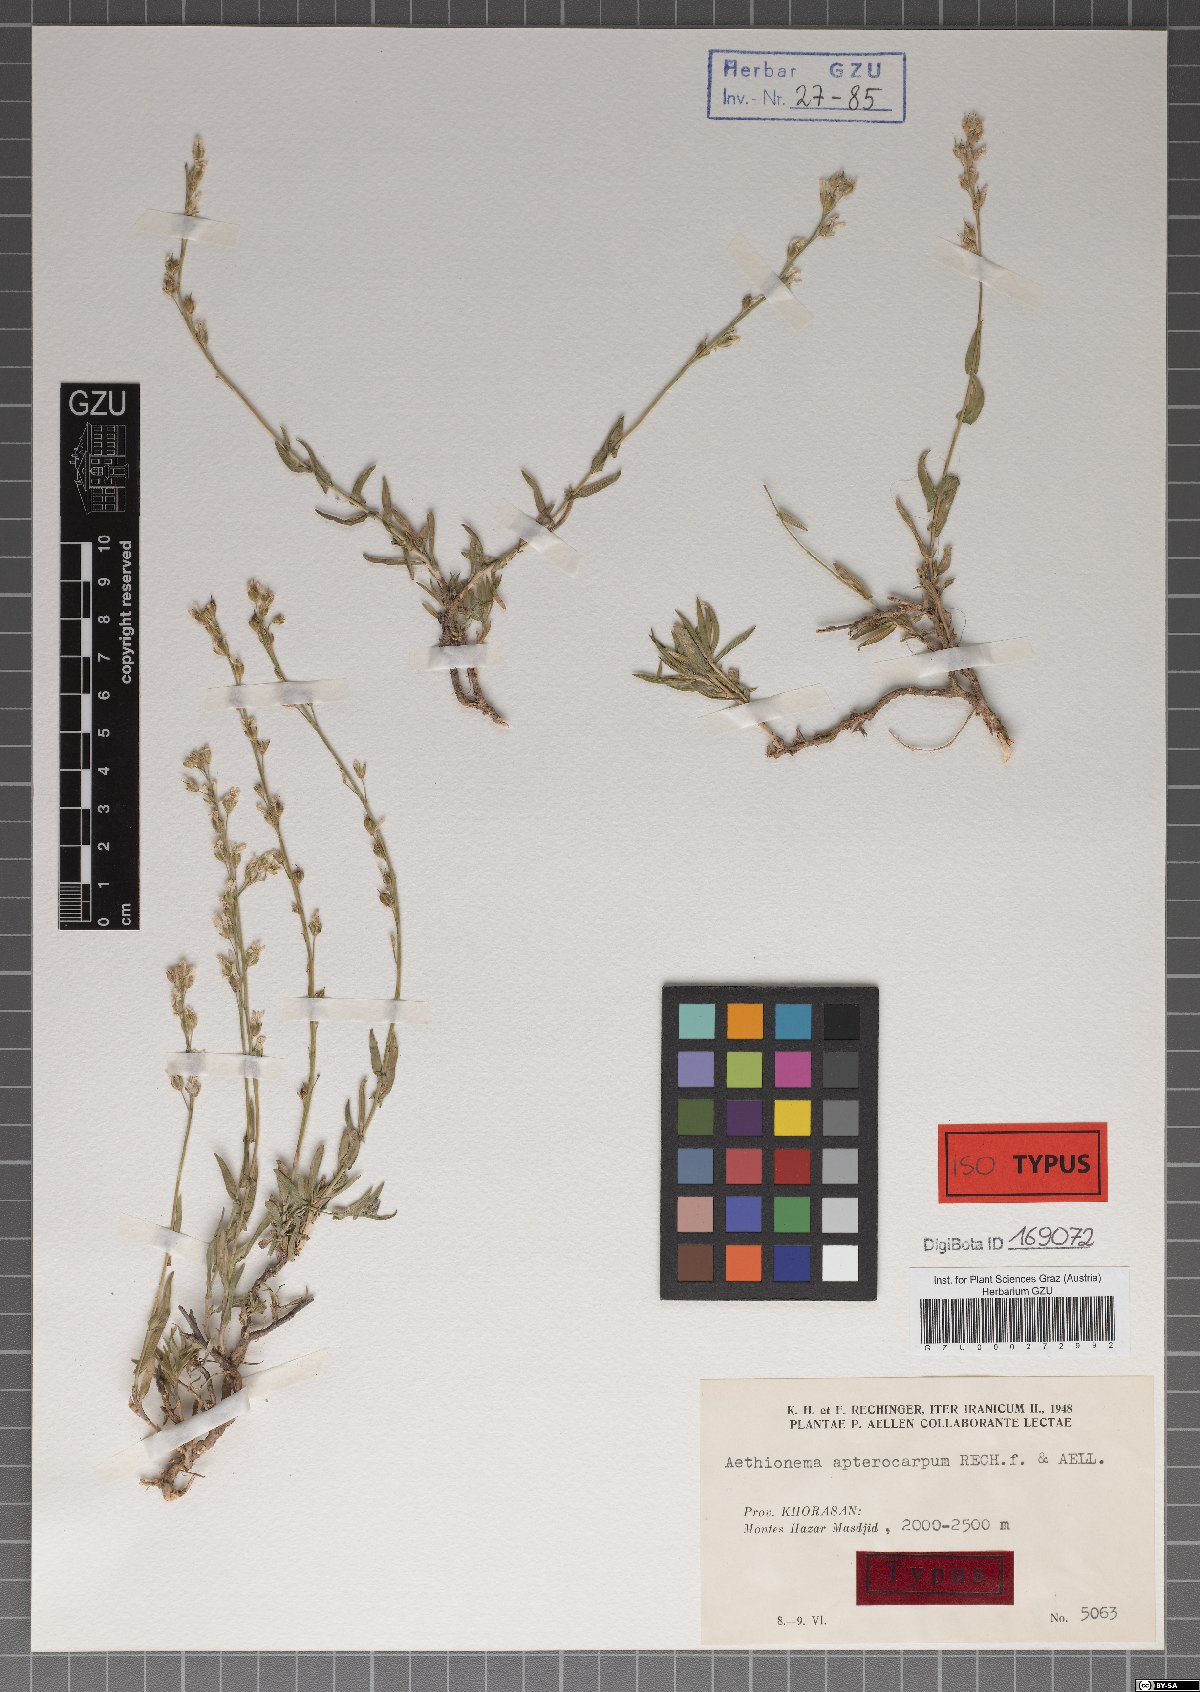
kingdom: Plantae
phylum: Tracheophyta
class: Magnoliopsida
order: Brassicales
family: Brassicaceae
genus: Noccaea
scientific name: Noccaea apterocarpa
